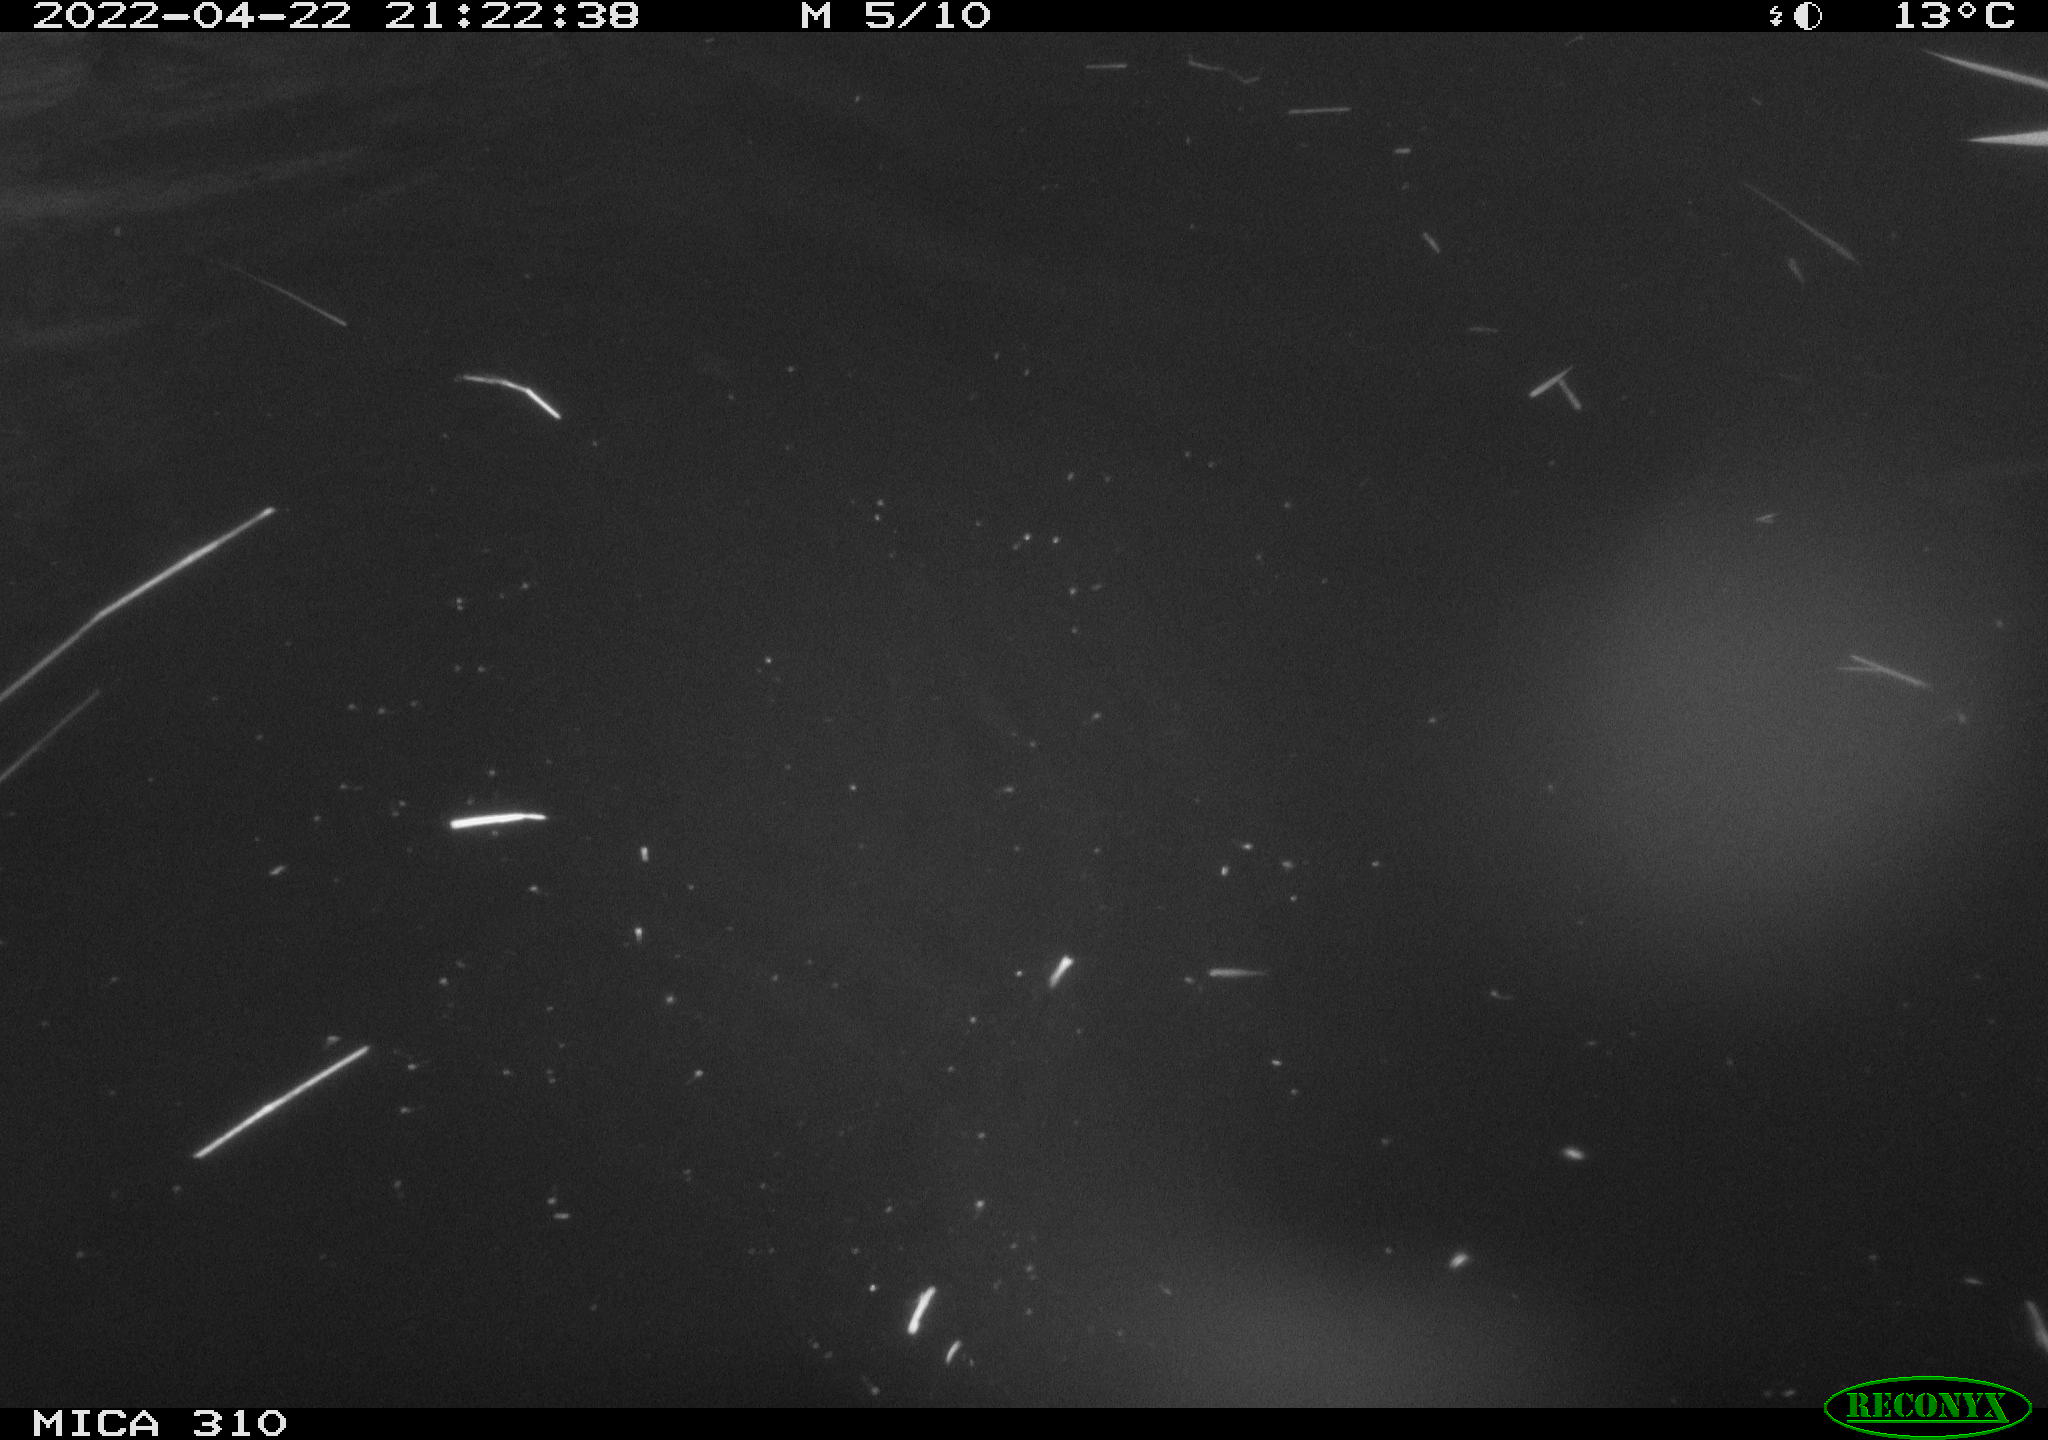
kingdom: Animalia
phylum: Chordata
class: Aves
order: Anseriformes
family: Anatidae
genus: Anas
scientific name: Anas platyrhynchos
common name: Mallard
